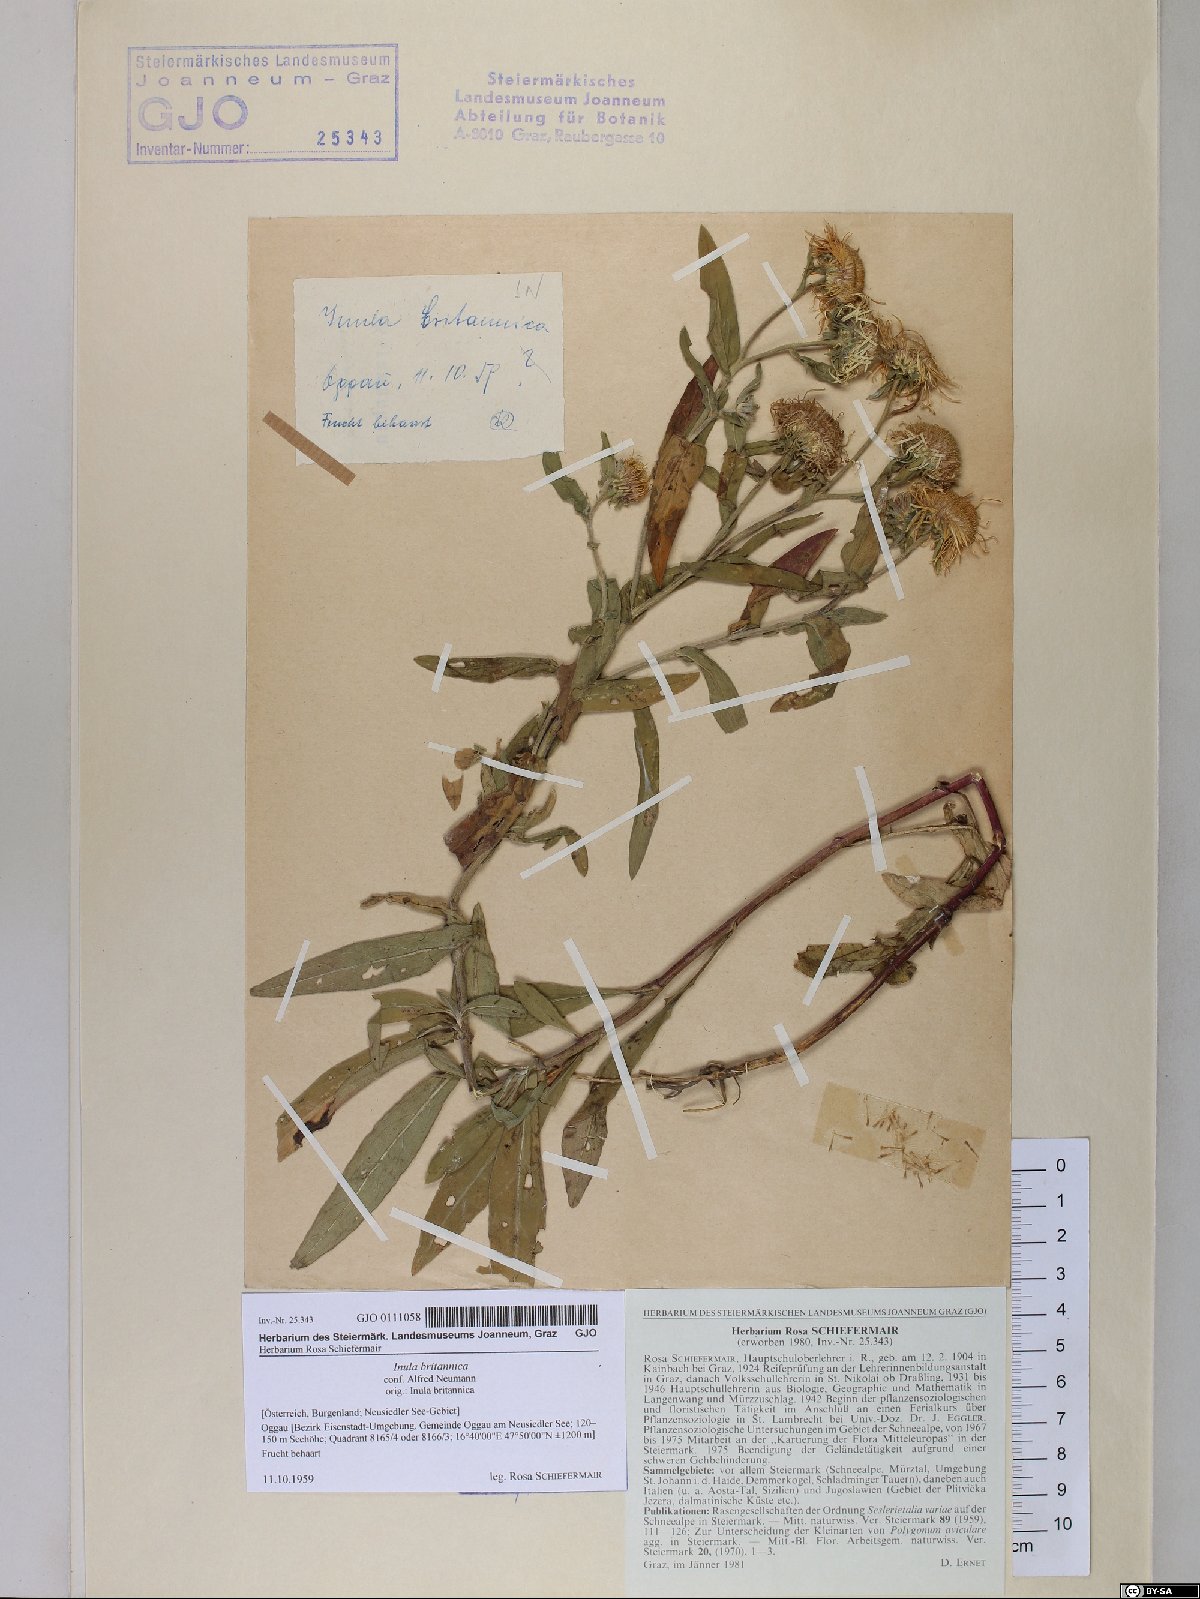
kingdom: Plantae
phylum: Tracheophyta
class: Magnoliopsida
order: Asterales
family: Asteraceae
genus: Pentanema
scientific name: Pentanema britannicum
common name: British elecampane
